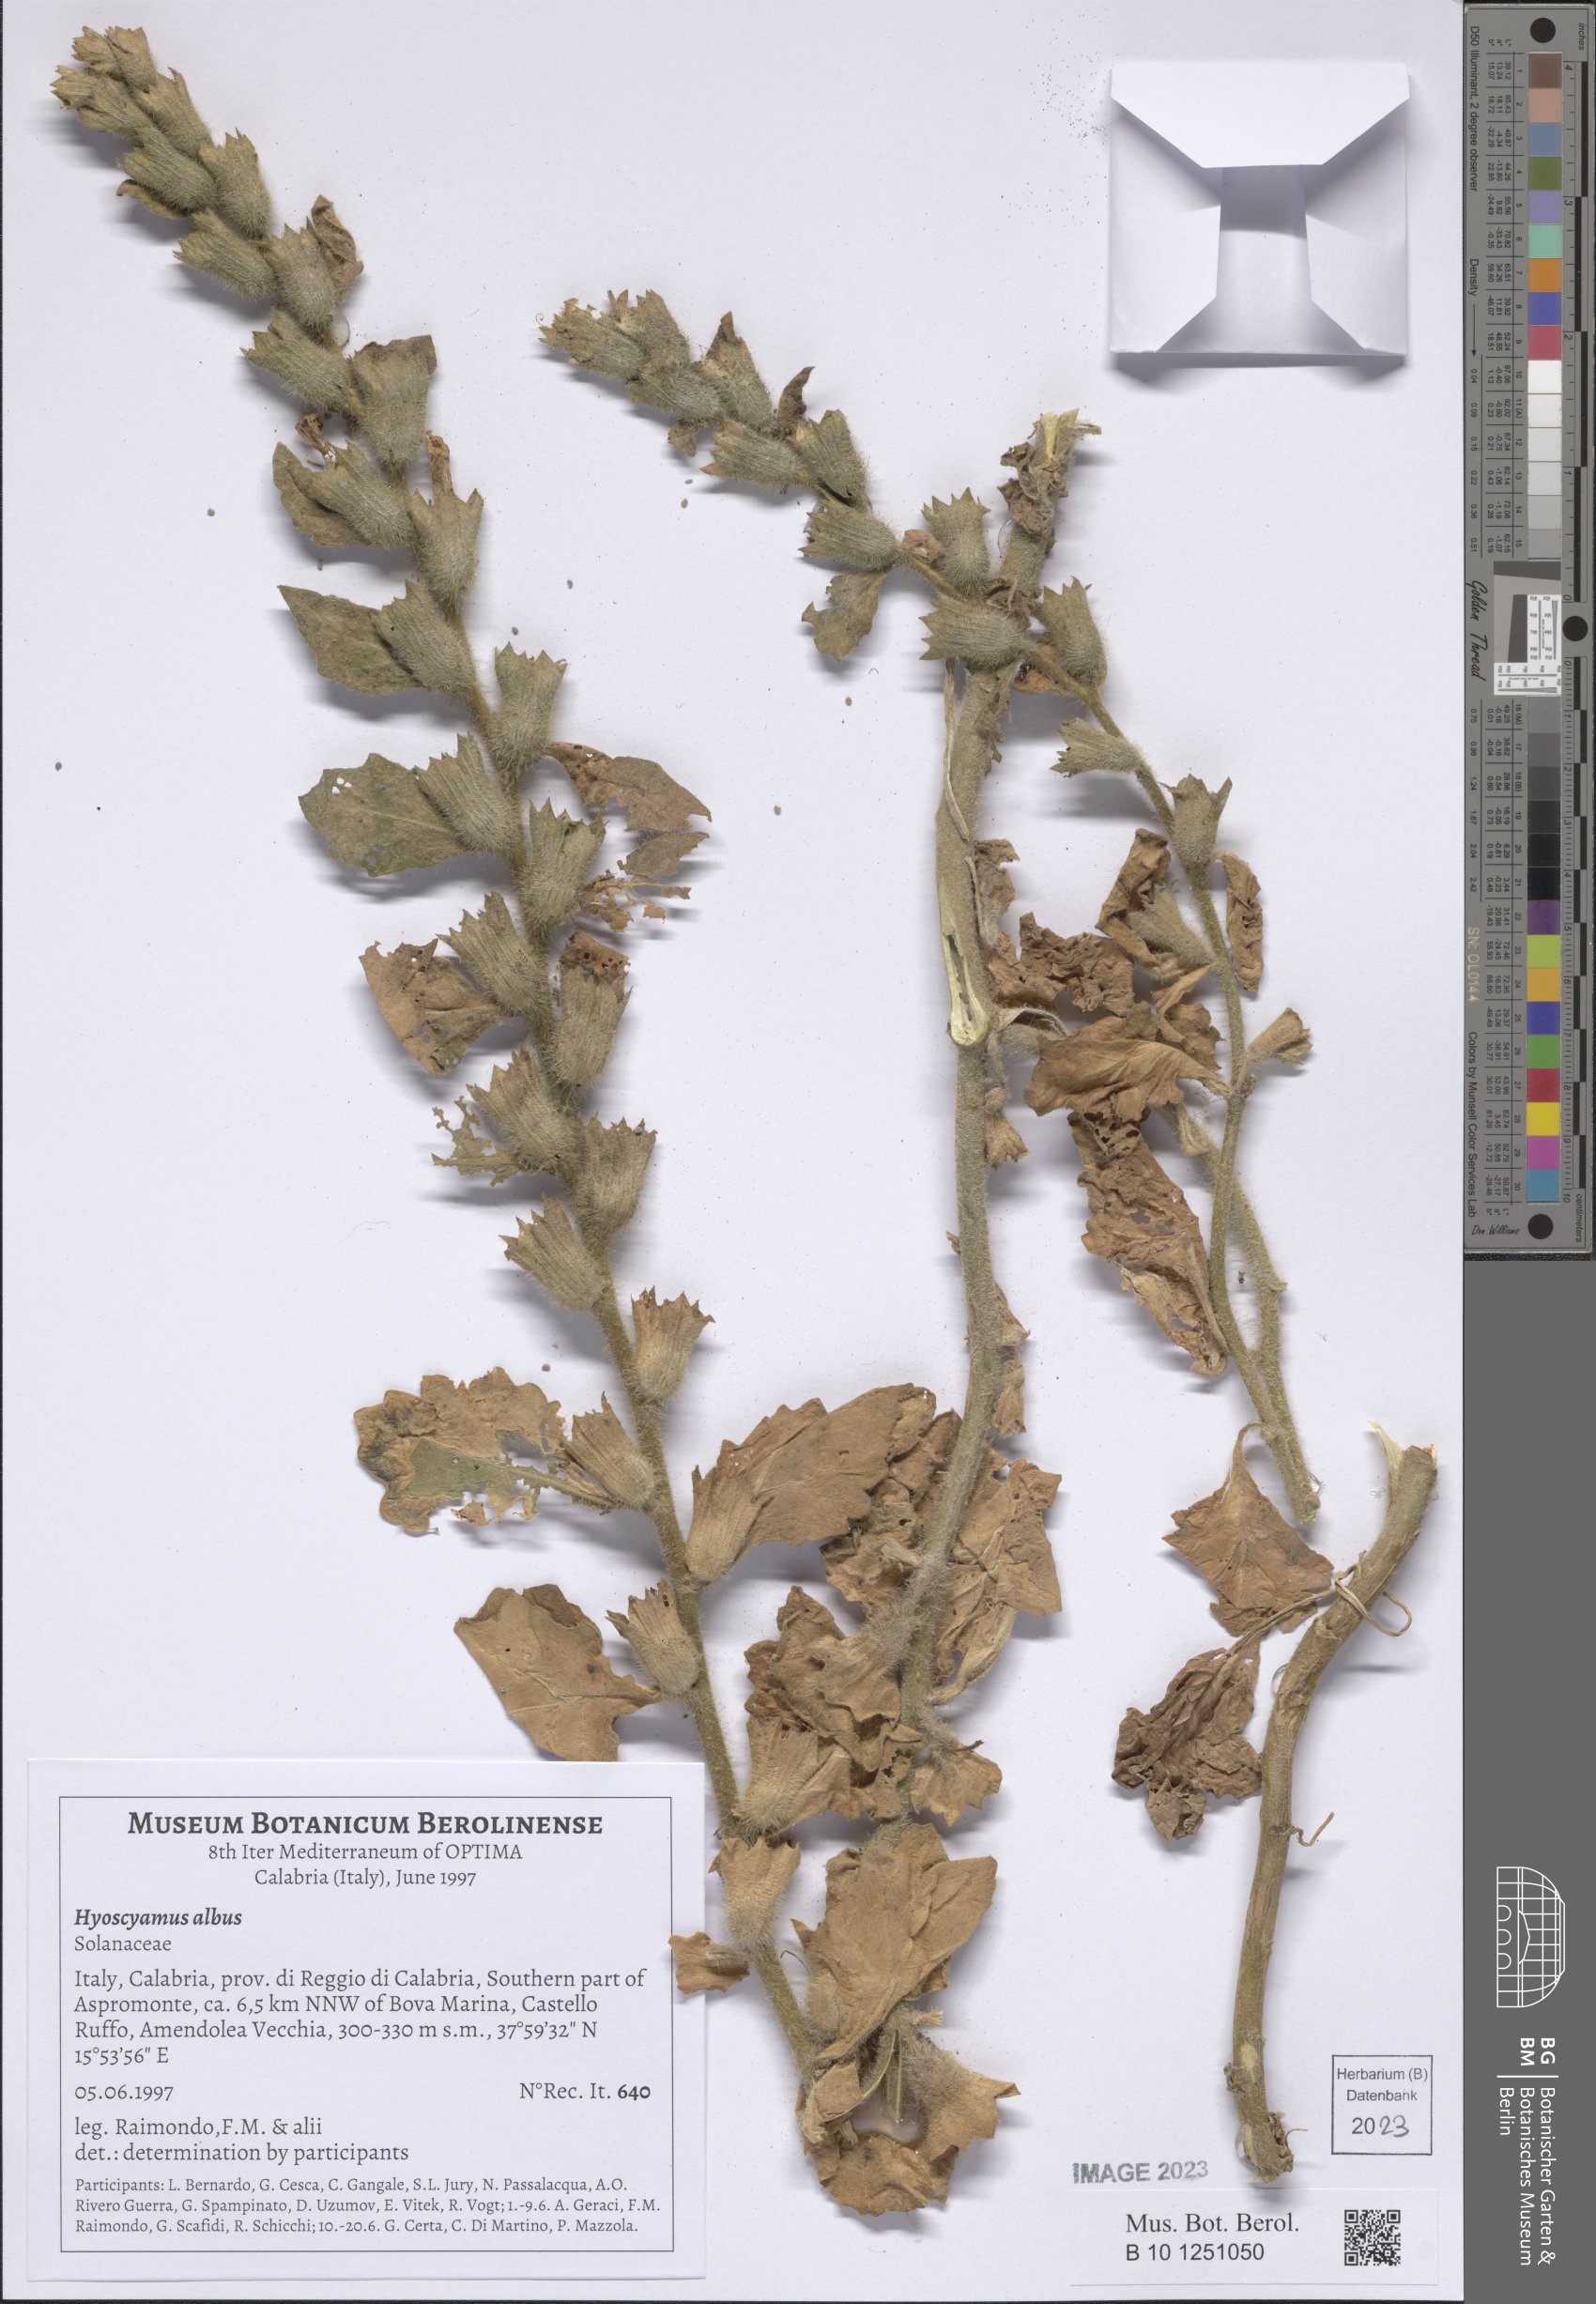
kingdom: Plantae
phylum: Tracheophyta
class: Magnoliopsida
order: Solanales
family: Solanaceae
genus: Hyoscyamus
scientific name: Hyoscyamus albus
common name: White henbane
